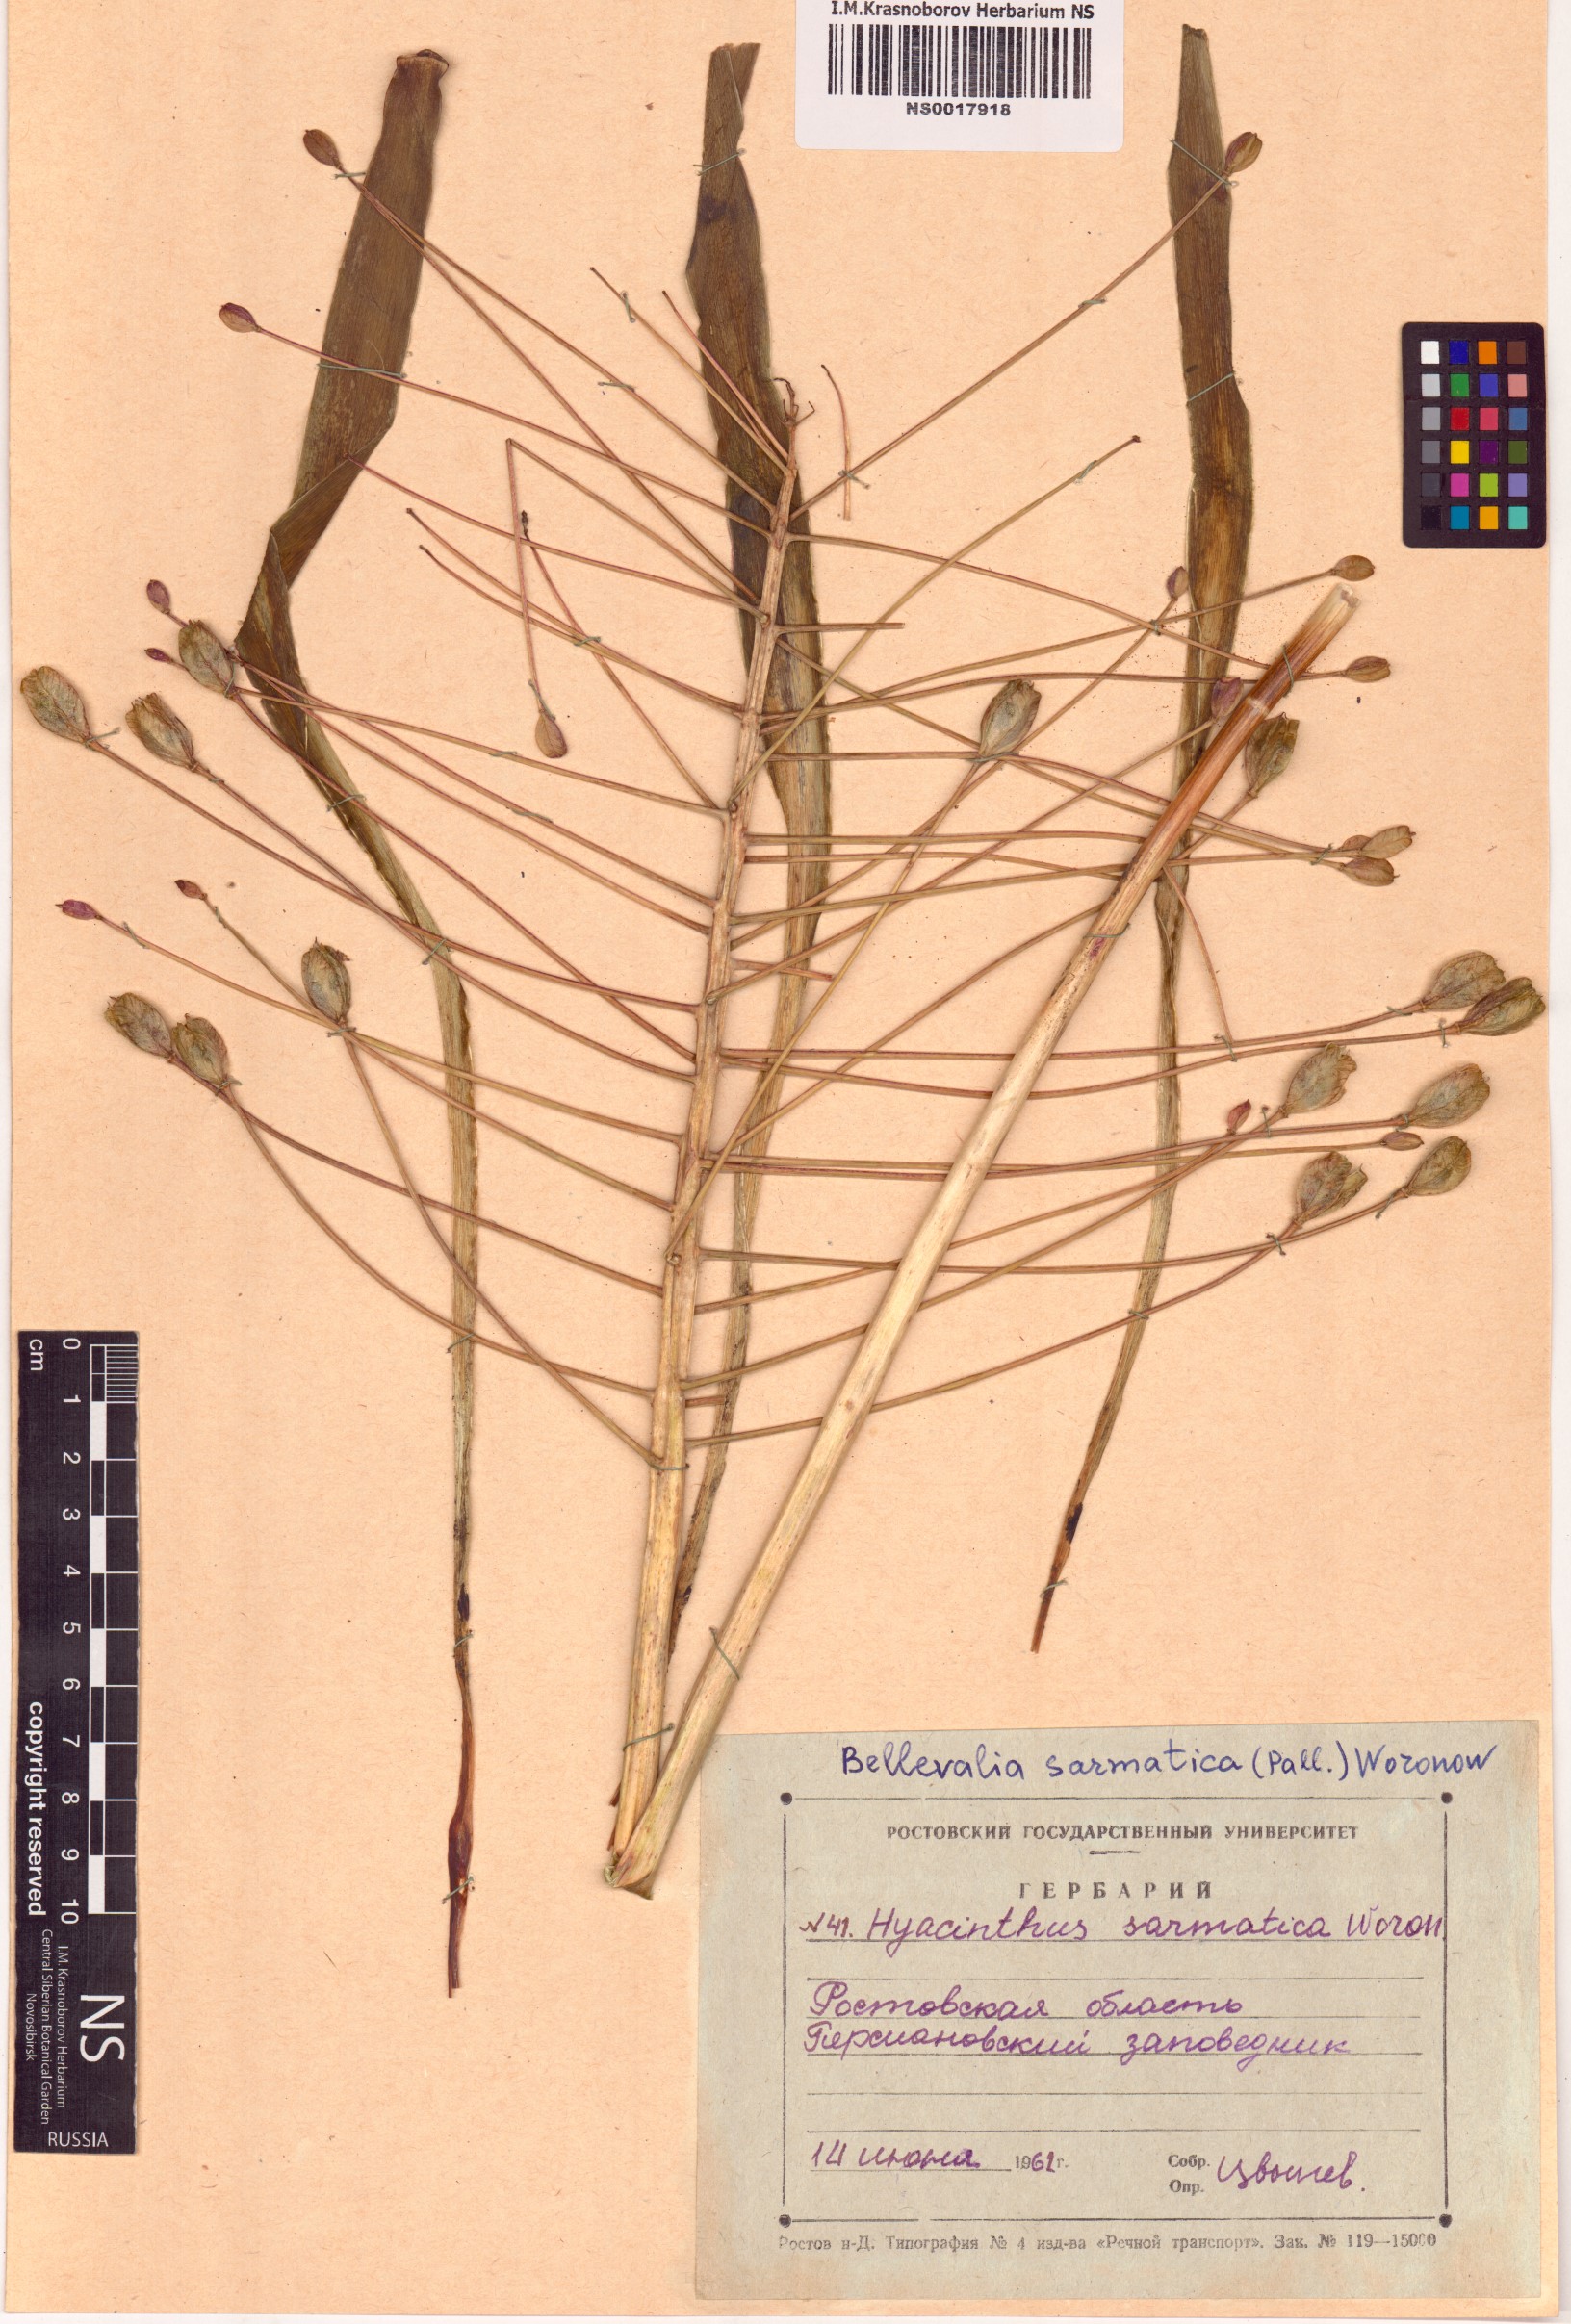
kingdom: Plantae
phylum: Tracheophyta
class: Liliopsida
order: Asparagales
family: Asparagaceae
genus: Bellevalia
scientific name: Bellevalia speciosa
